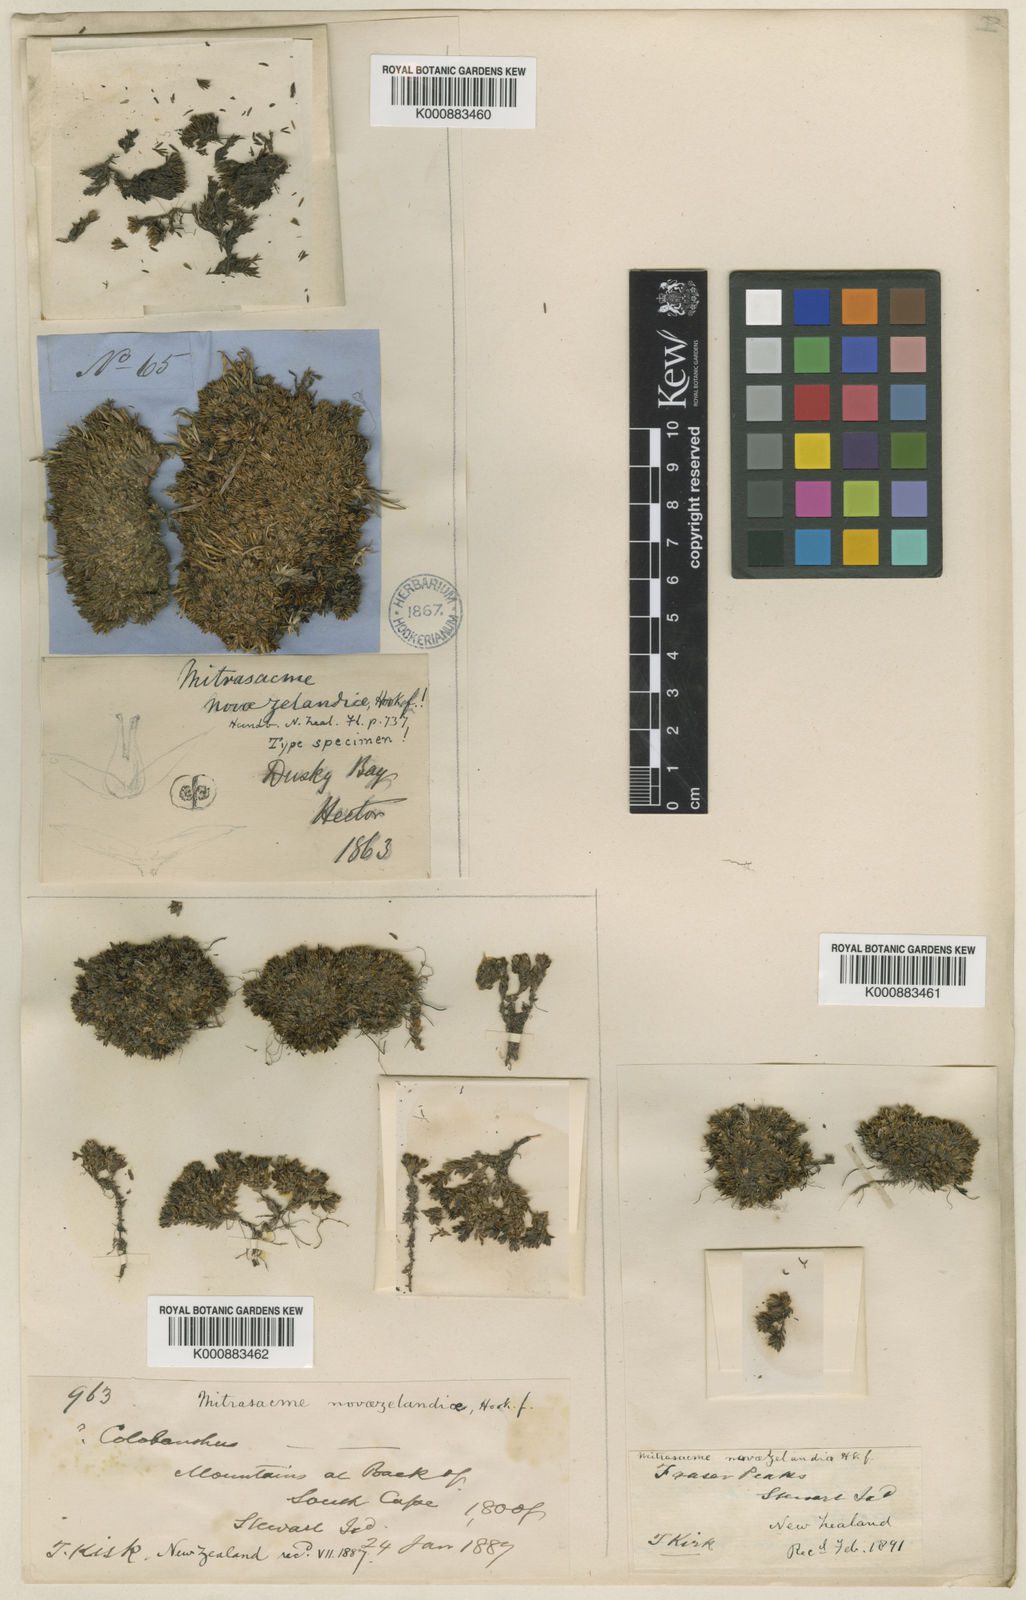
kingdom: Plantae
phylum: Tracheophyta
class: Magnoliopsida
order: Gentianales
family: Loganiaceae
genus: Mitrasacme
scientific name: Mitrasacme
